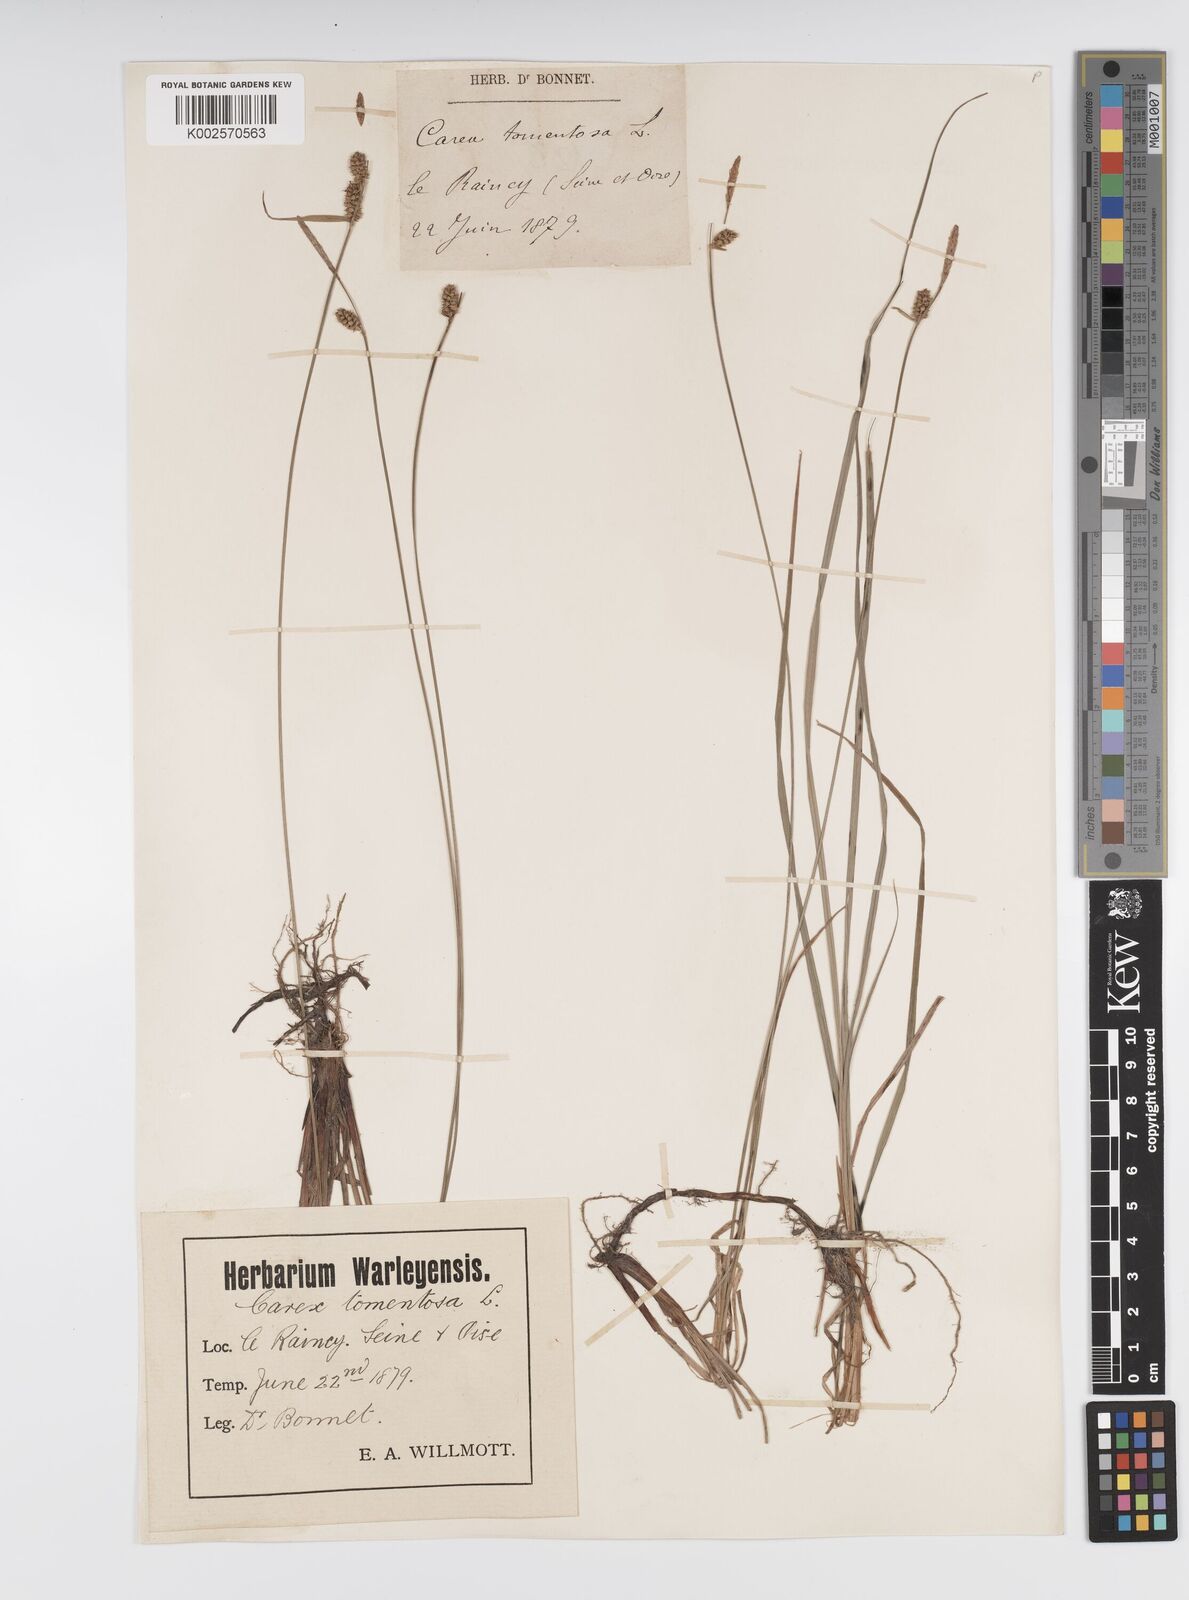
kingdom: Plantae
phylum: Tracheophyta
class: Liliopsida
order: Poales
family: Cyperaceae
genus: Carex
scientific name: Carex montana
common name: Soft-leaved sedge
